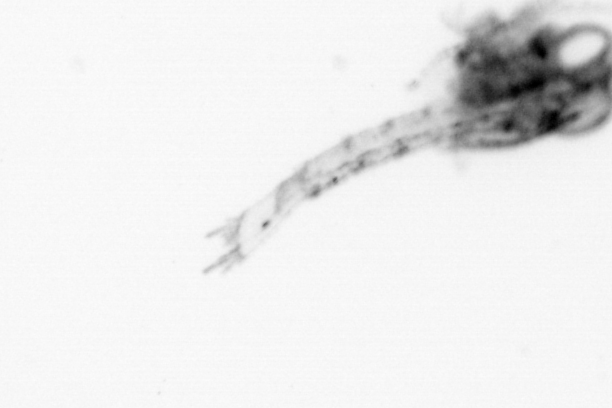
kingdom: Animalia
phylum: Arthropoda
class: Malacostraca
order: Decapoda
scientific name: Decapoda
